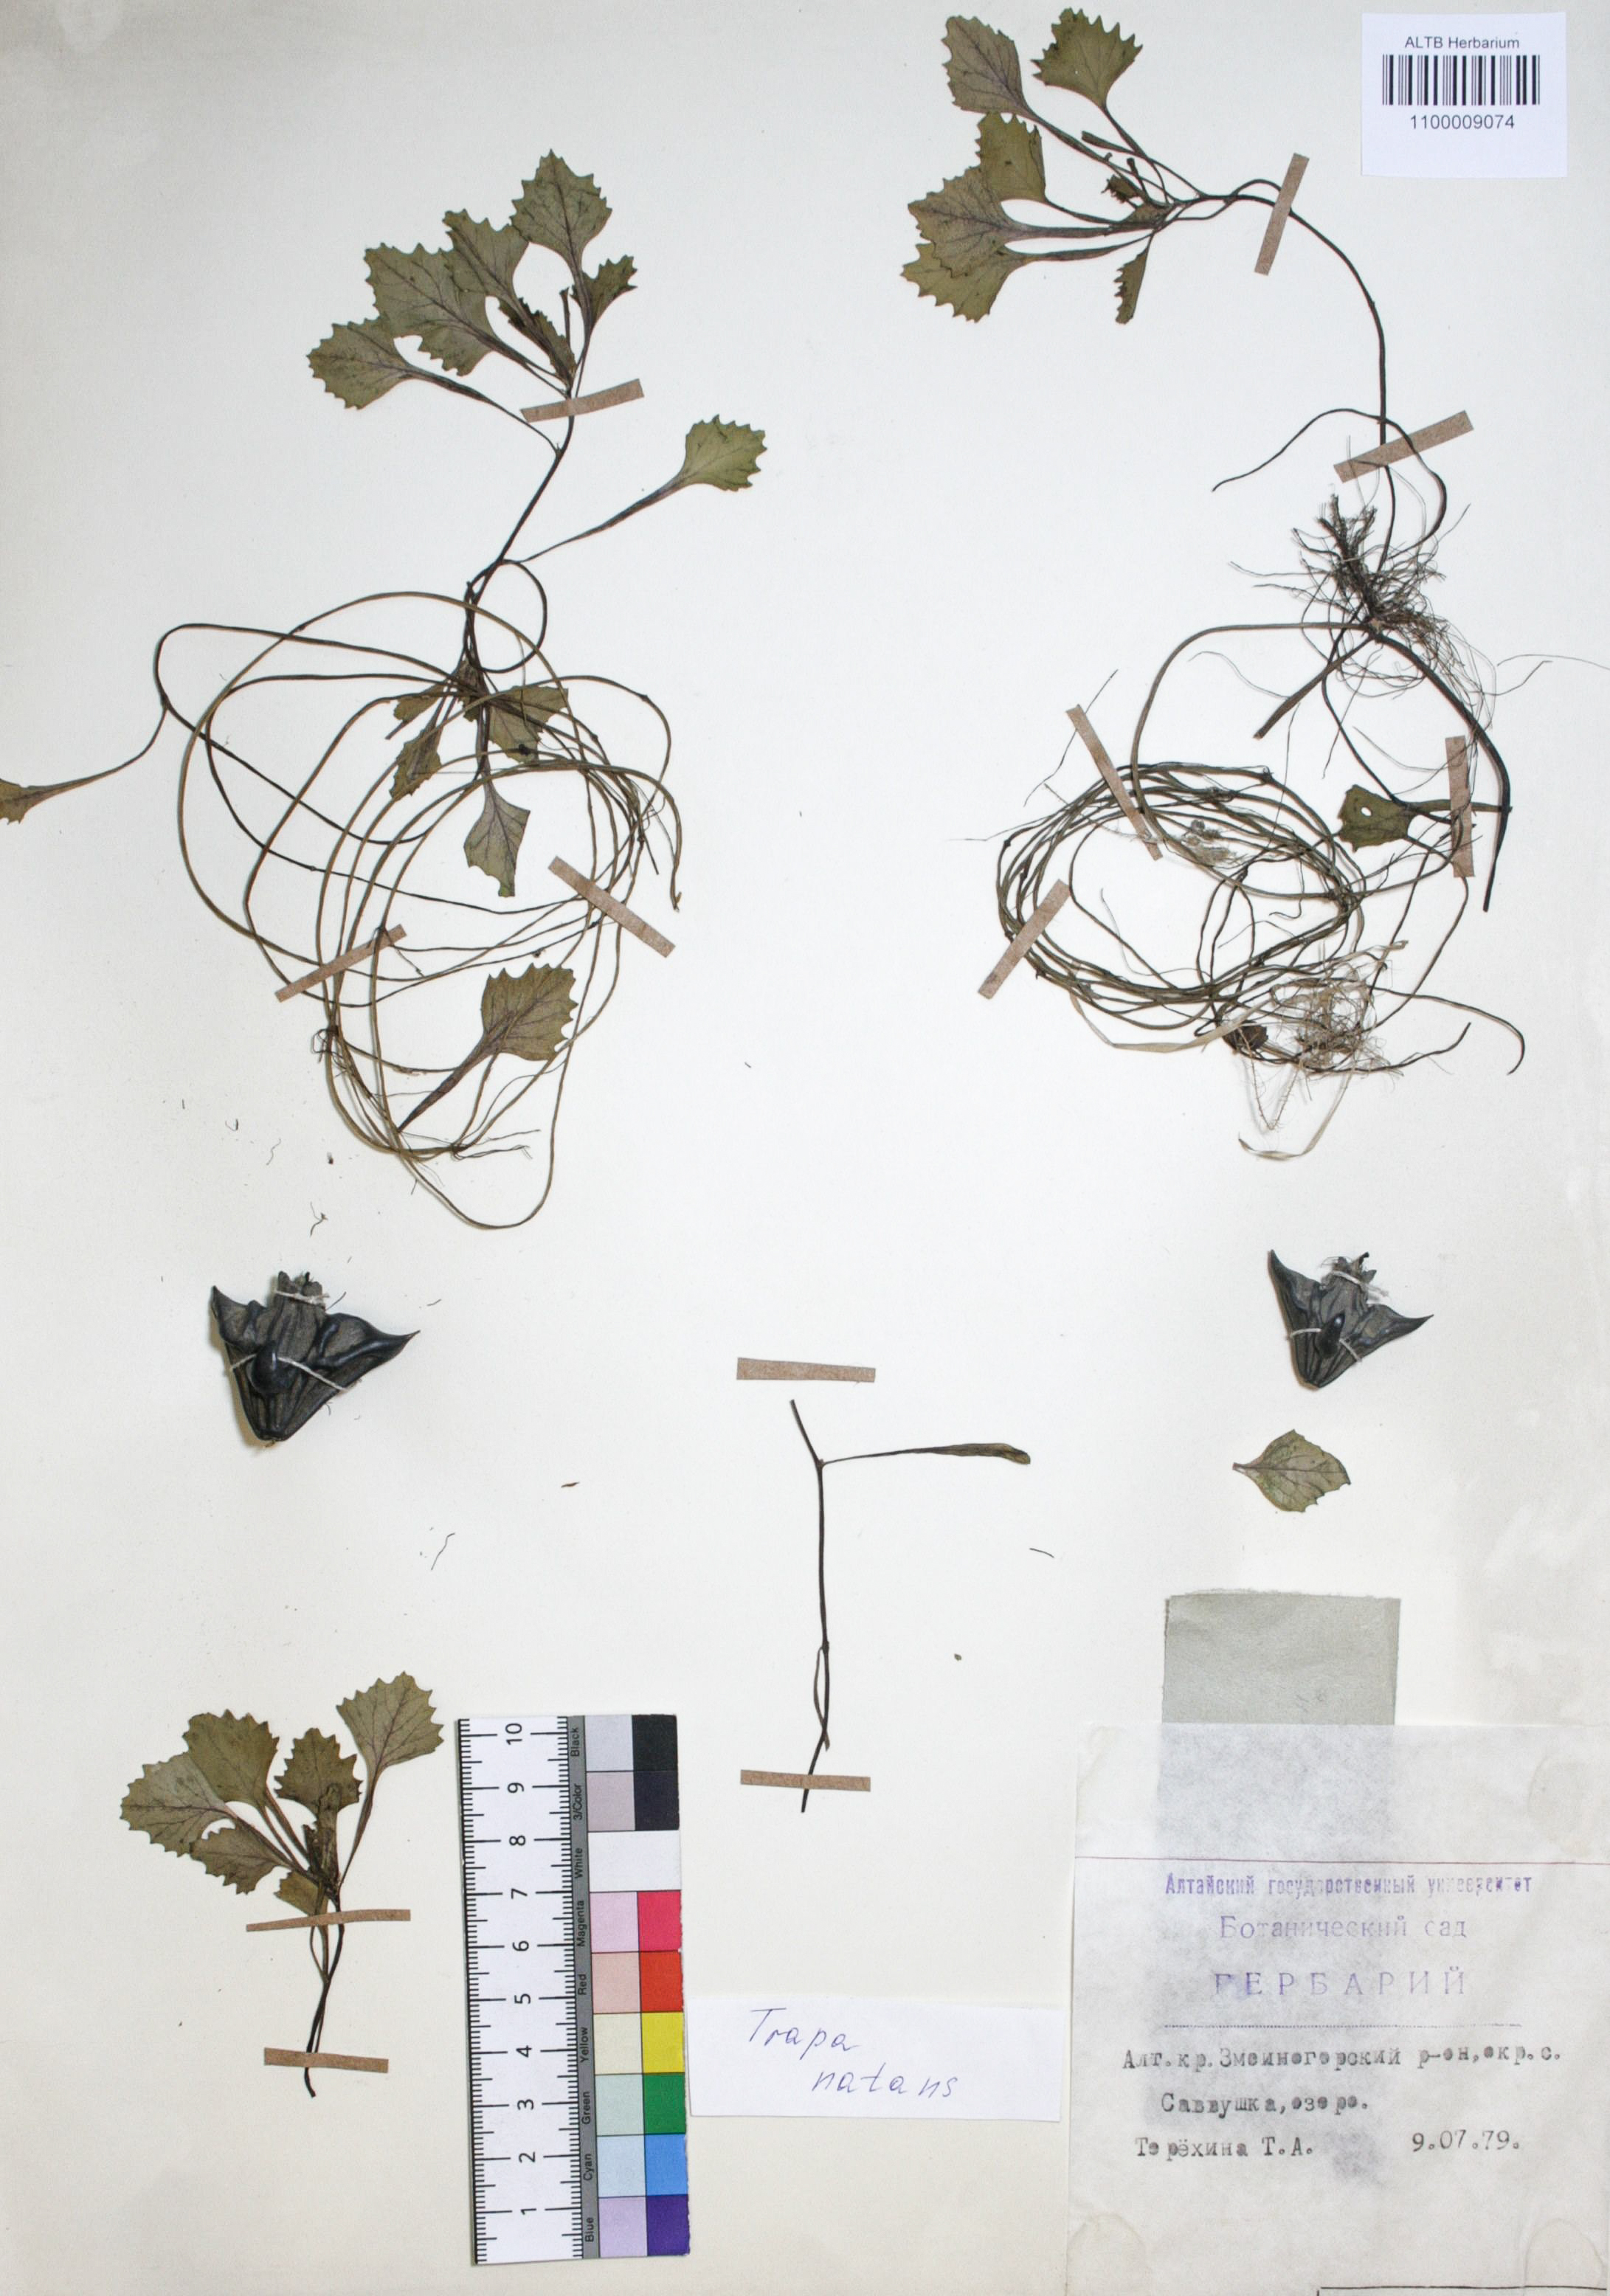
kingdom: Plantae
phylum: Tracheophyta
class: Magnoliopsida
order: Myrtales
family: Lythraceae
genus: Trapa
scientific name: Trapa natans
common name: Water chestnut
